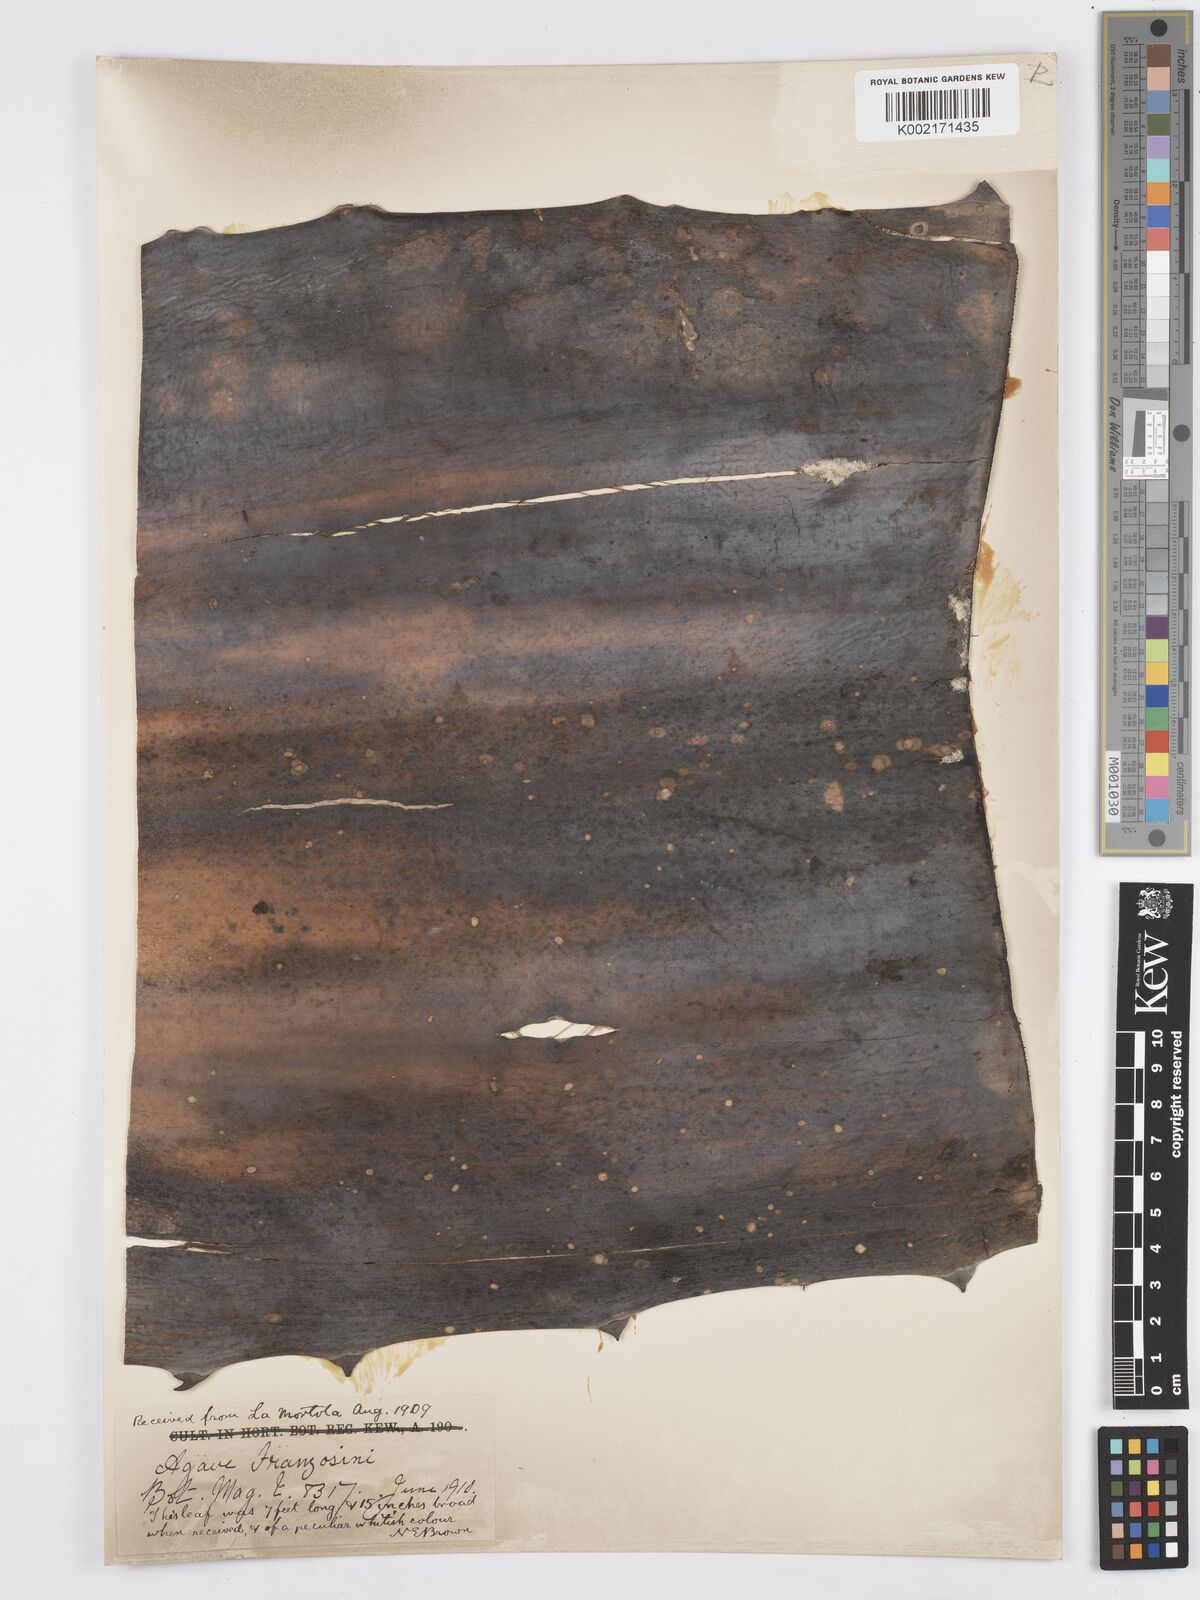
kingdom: Plantae
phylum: Tracheophyta
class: Liliopsida
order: Asparagales
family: Asparagaceae
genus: Agave
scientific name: Agave americana
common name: Centuryplant
